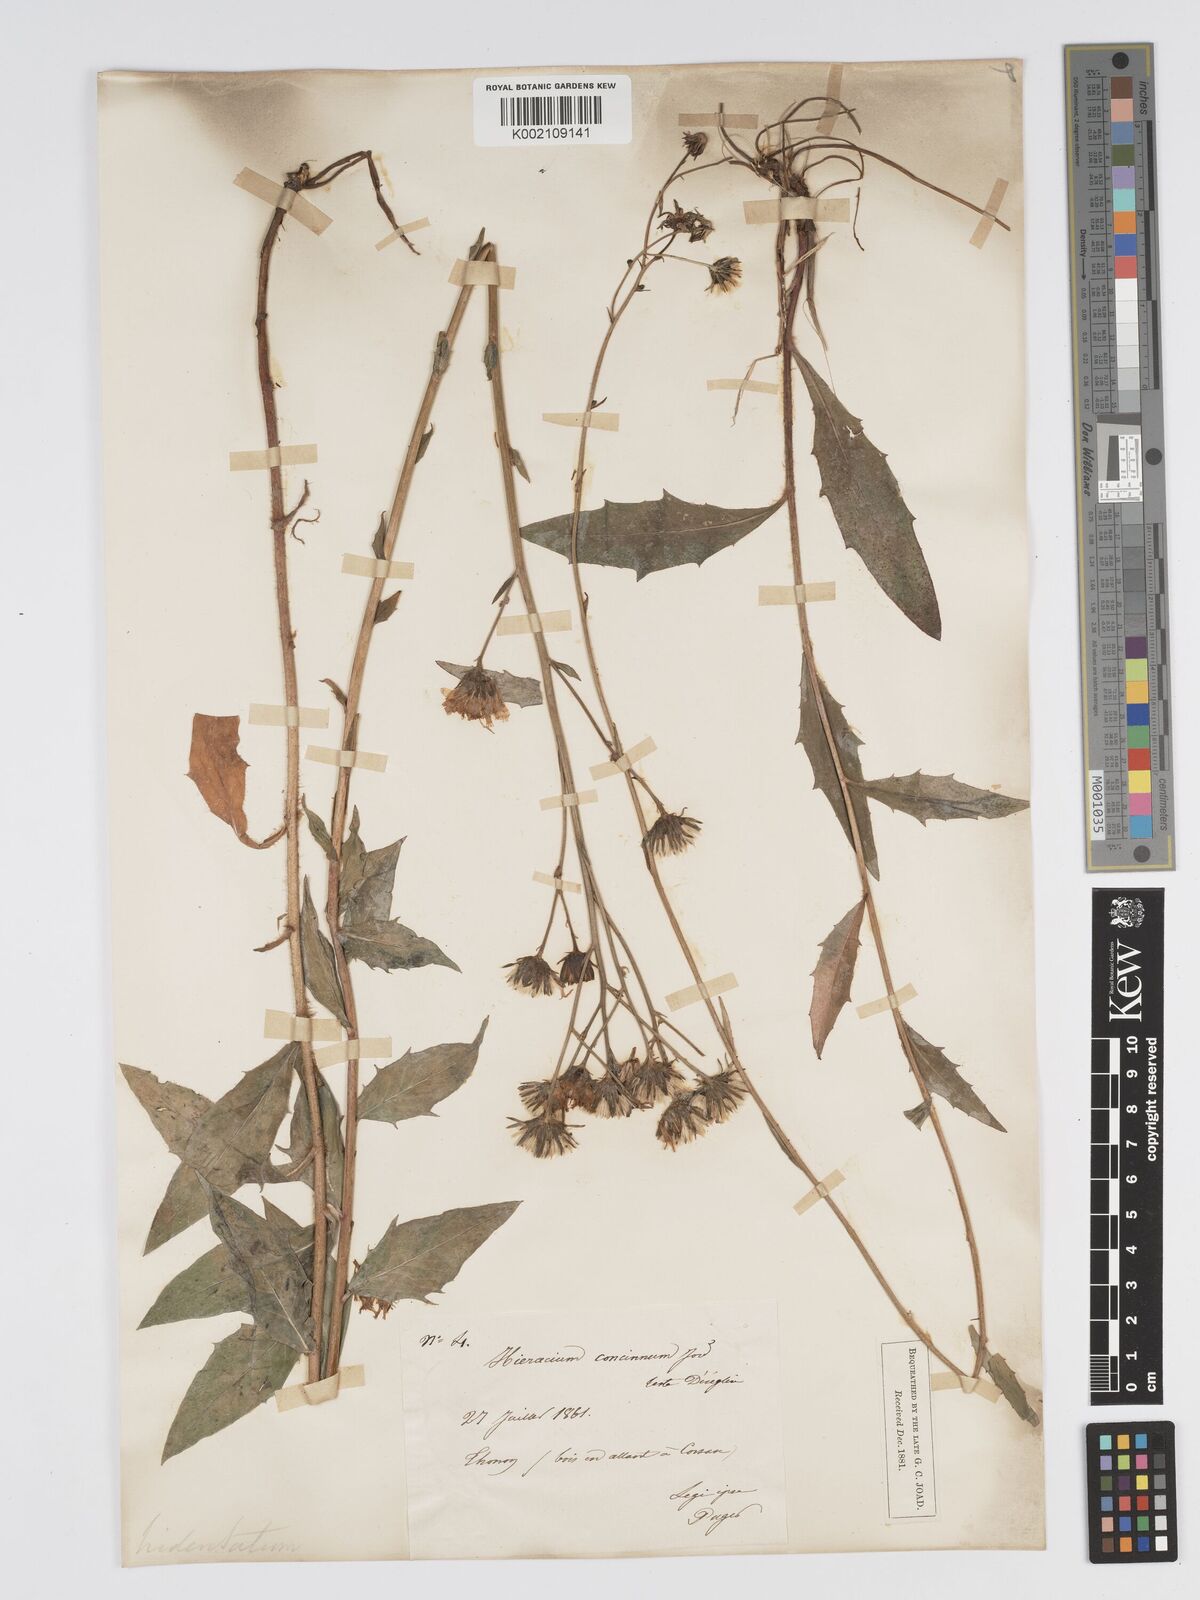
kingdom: Plantae
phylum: Tracheophyta
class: Magnoliopsida
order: Asterales
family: Asteraceae
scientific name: Asteraceae
